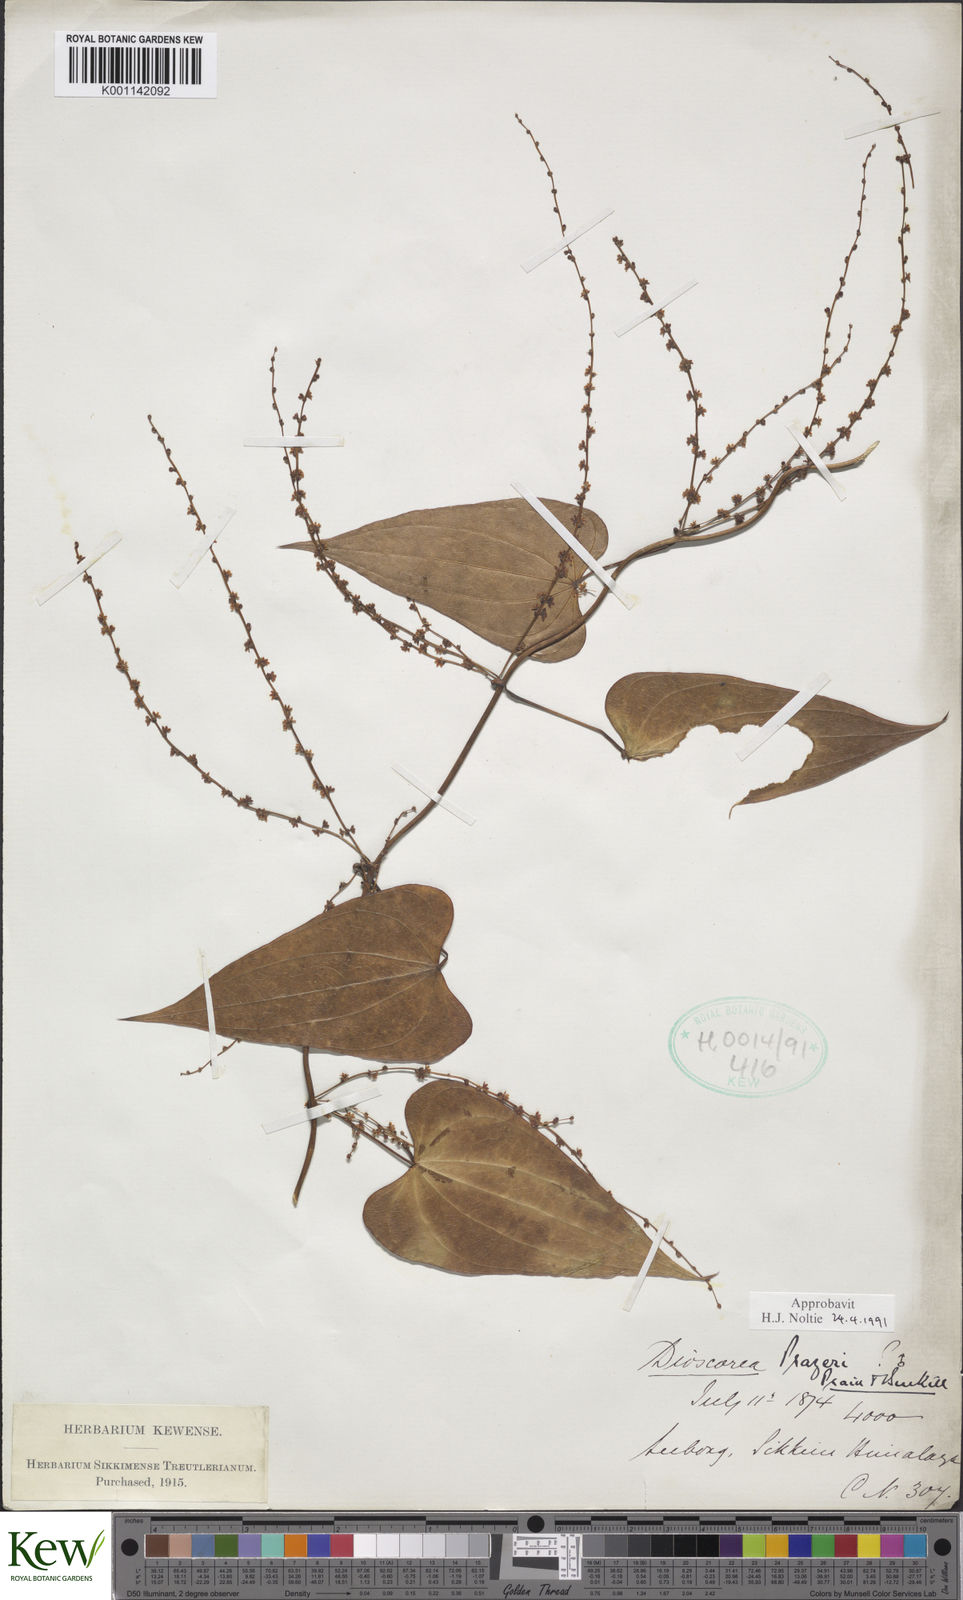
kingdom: Plantae
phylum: Tracheophyta
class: Liliopsida
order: Dioscoreales
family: Dioscoreaceae
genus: Dioscorea
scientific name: Dioscorea prazeri
